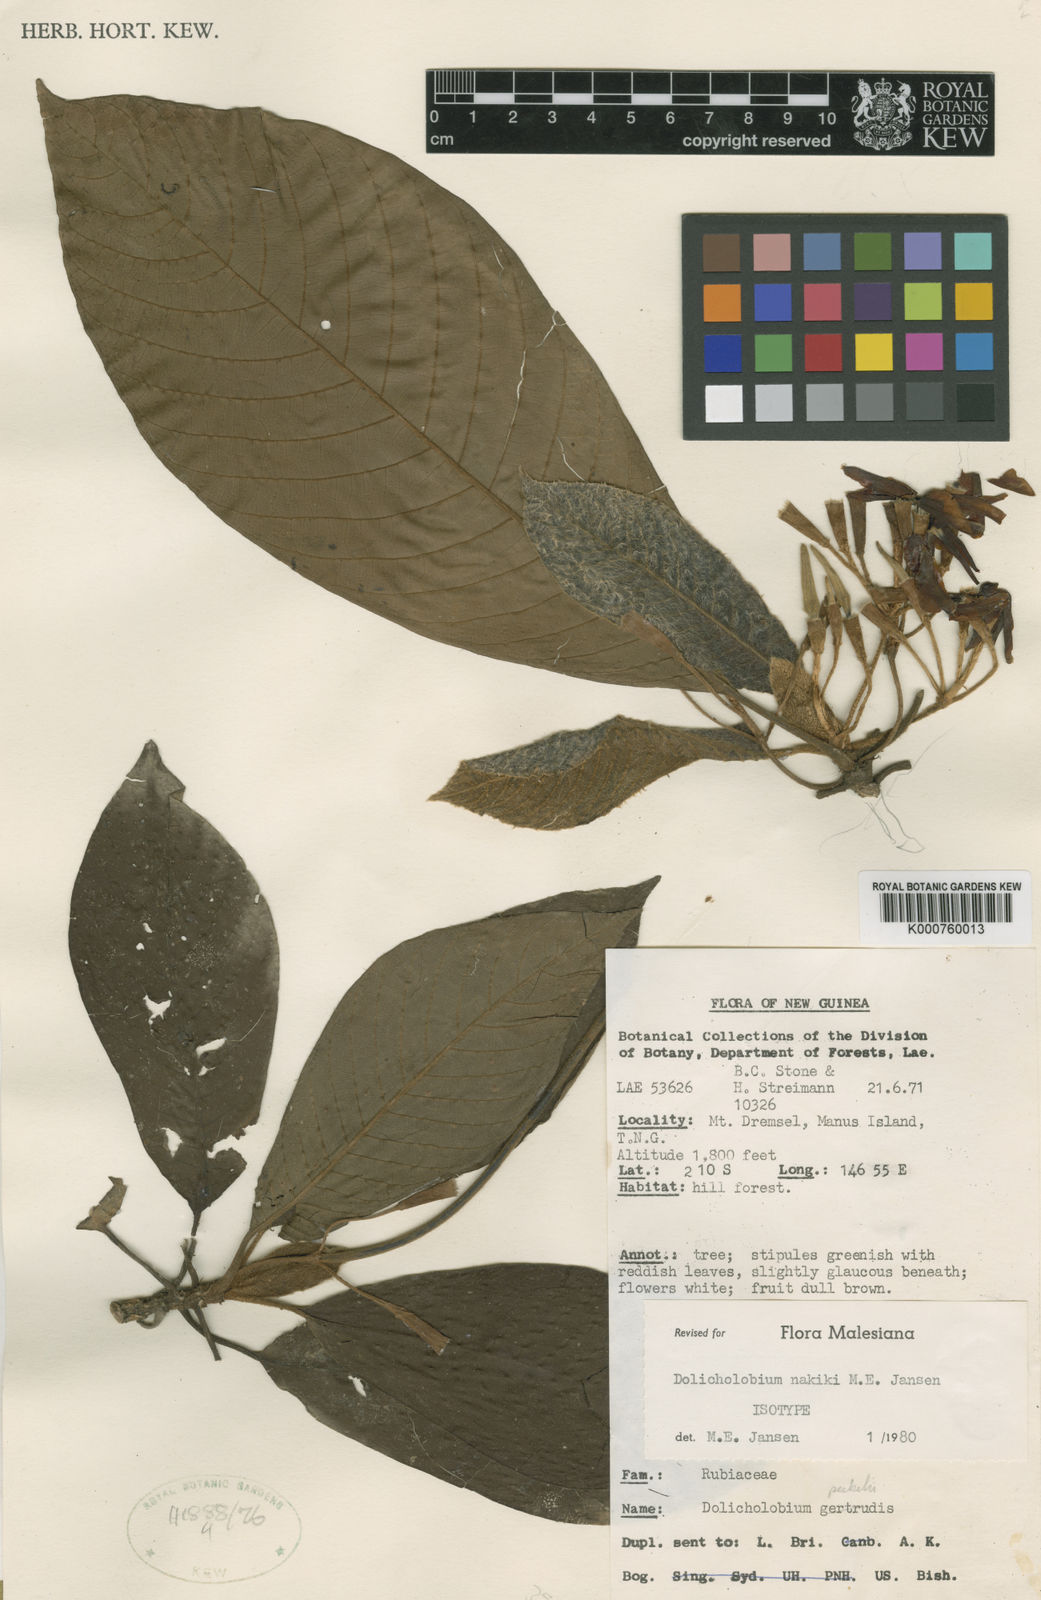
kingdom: Plantae
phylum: Tracheophyta
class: Magnoliopsida
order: Gentianales
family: Rubiaceae
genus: Dolicholobium
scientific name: Dolicholobium nakiki
